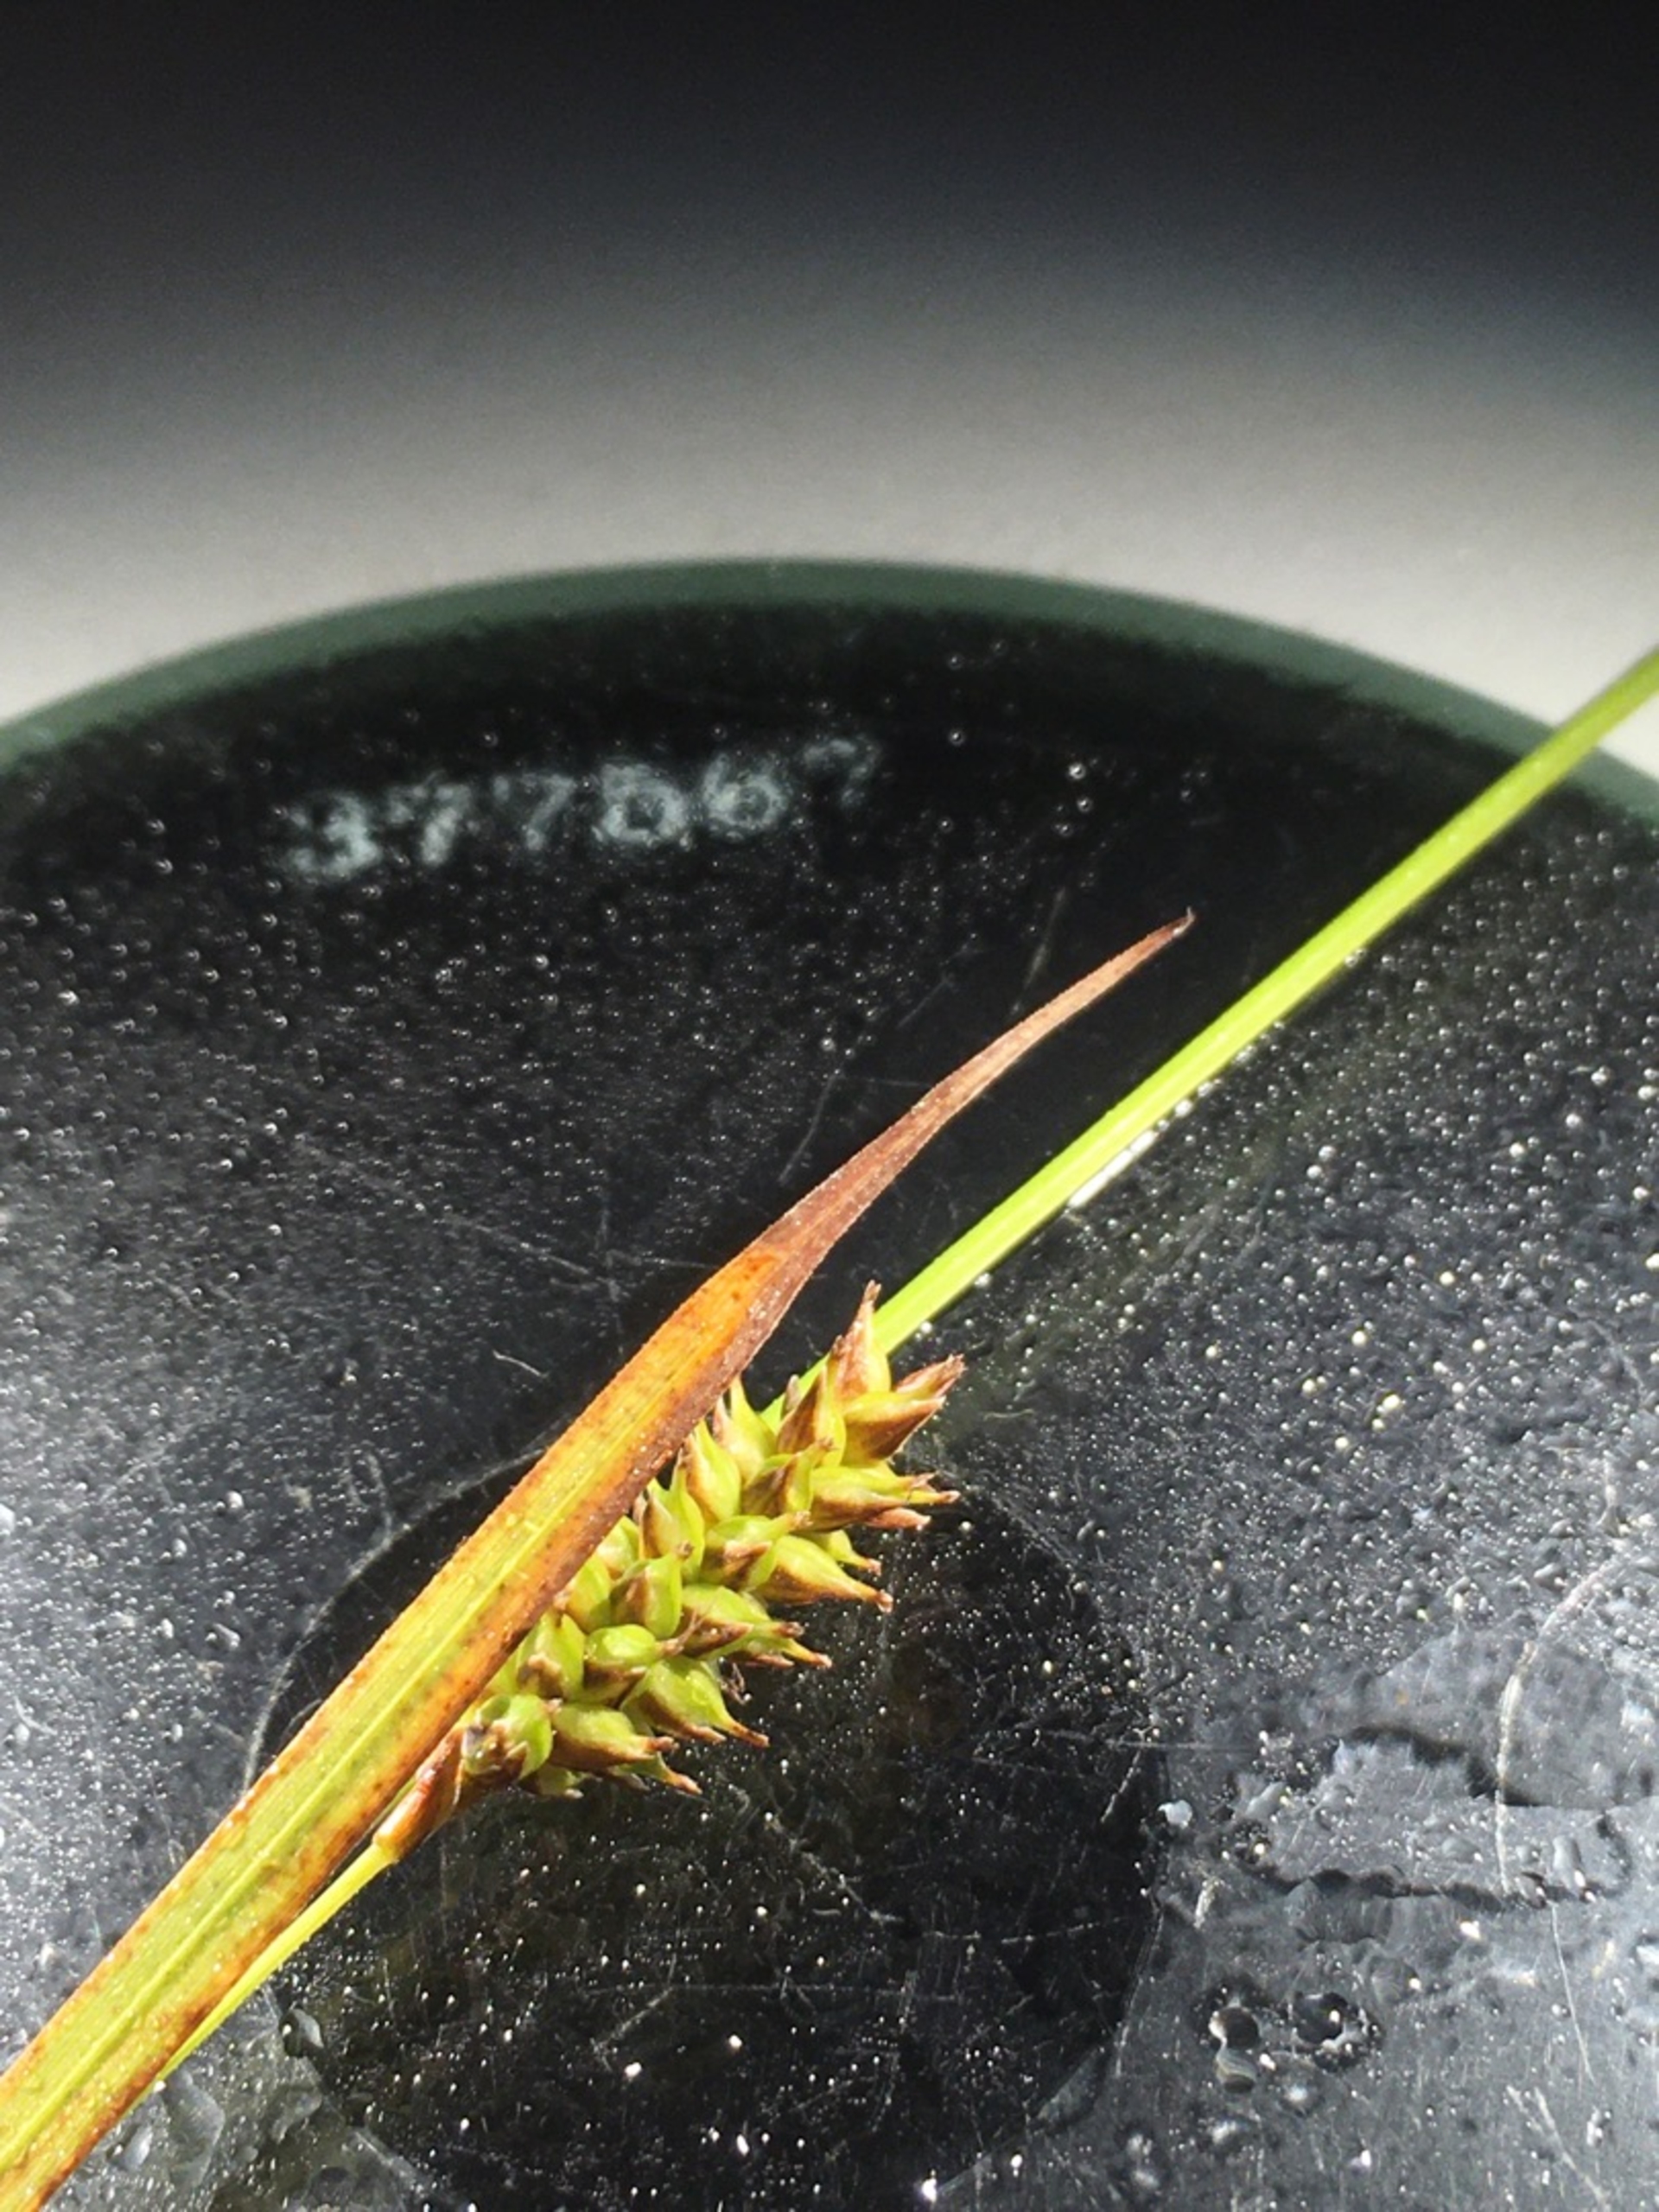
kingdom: Plantae
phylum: Tracheophyta
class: Liliopsida
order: Poales
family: Cyperaceae
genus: Carex
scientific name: Carex hostiana
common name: Skede-star
